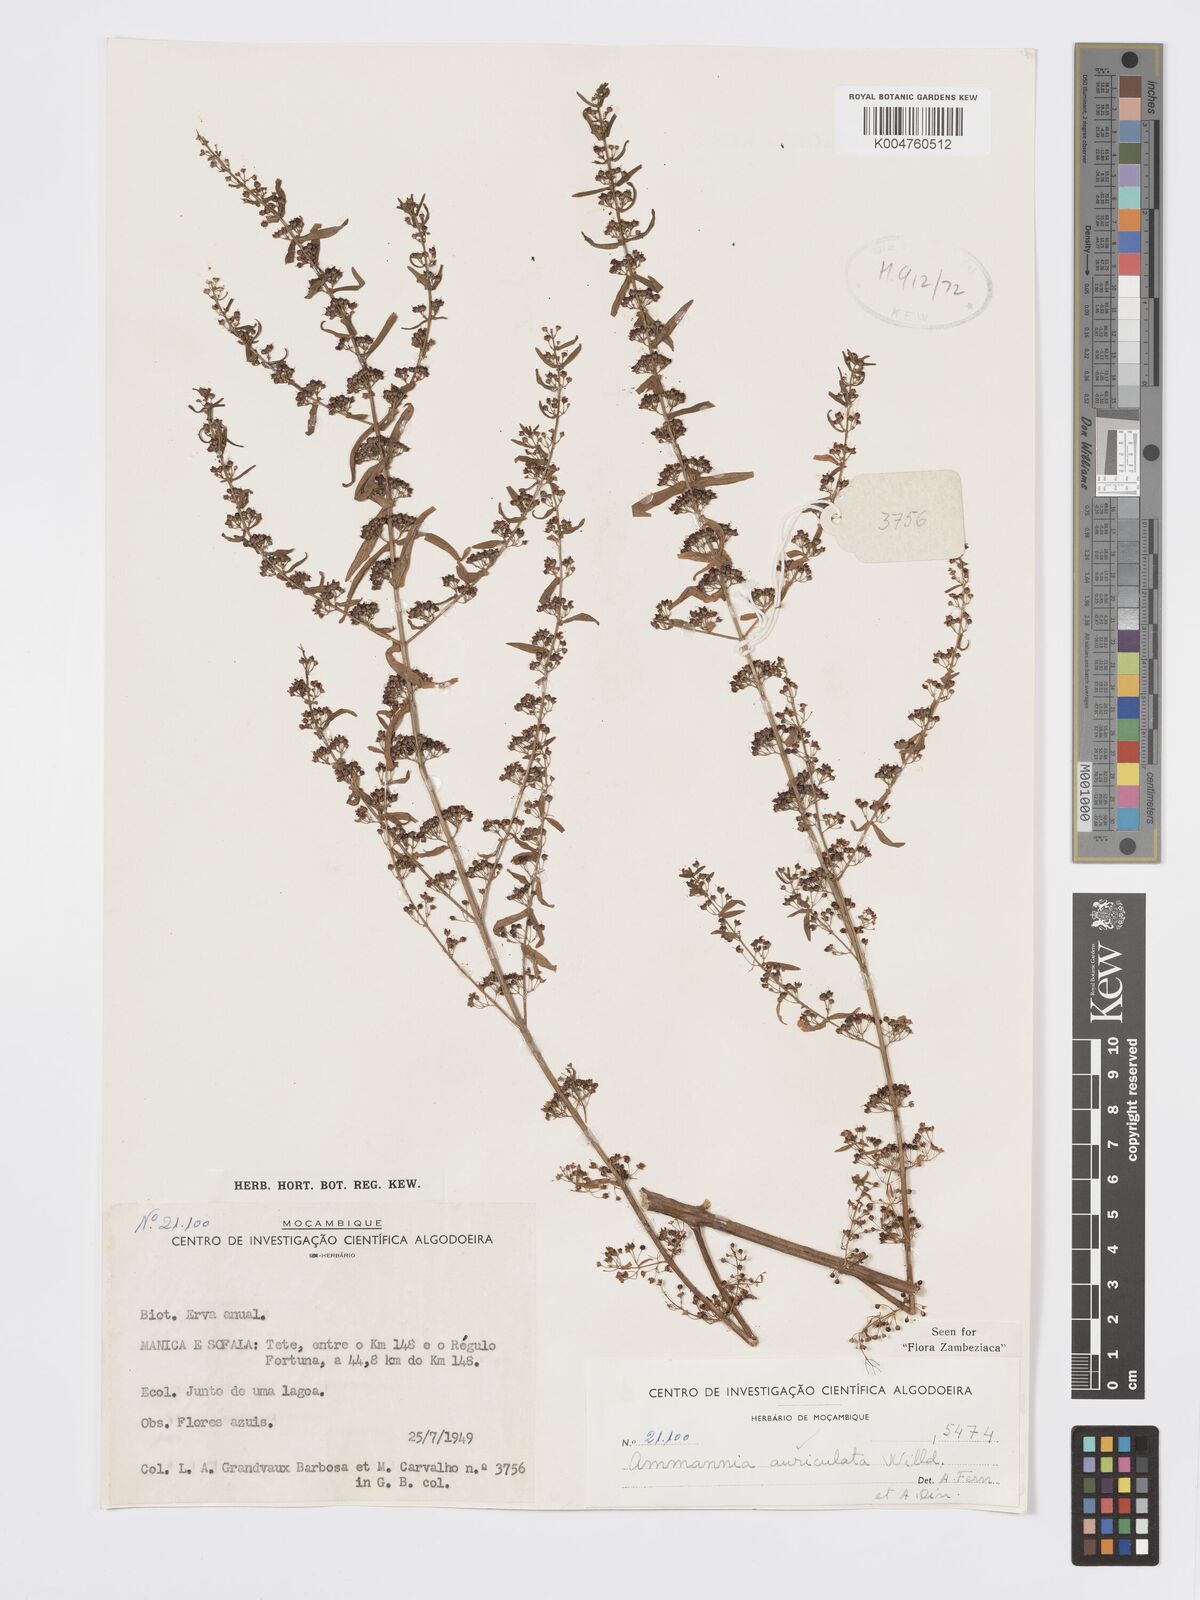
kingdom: Plantae
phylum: Tracheophyta
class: Magnoliopsida
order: Myrtales
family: Lythraceae
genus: Ammannia
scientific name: Ammannia auriculata
